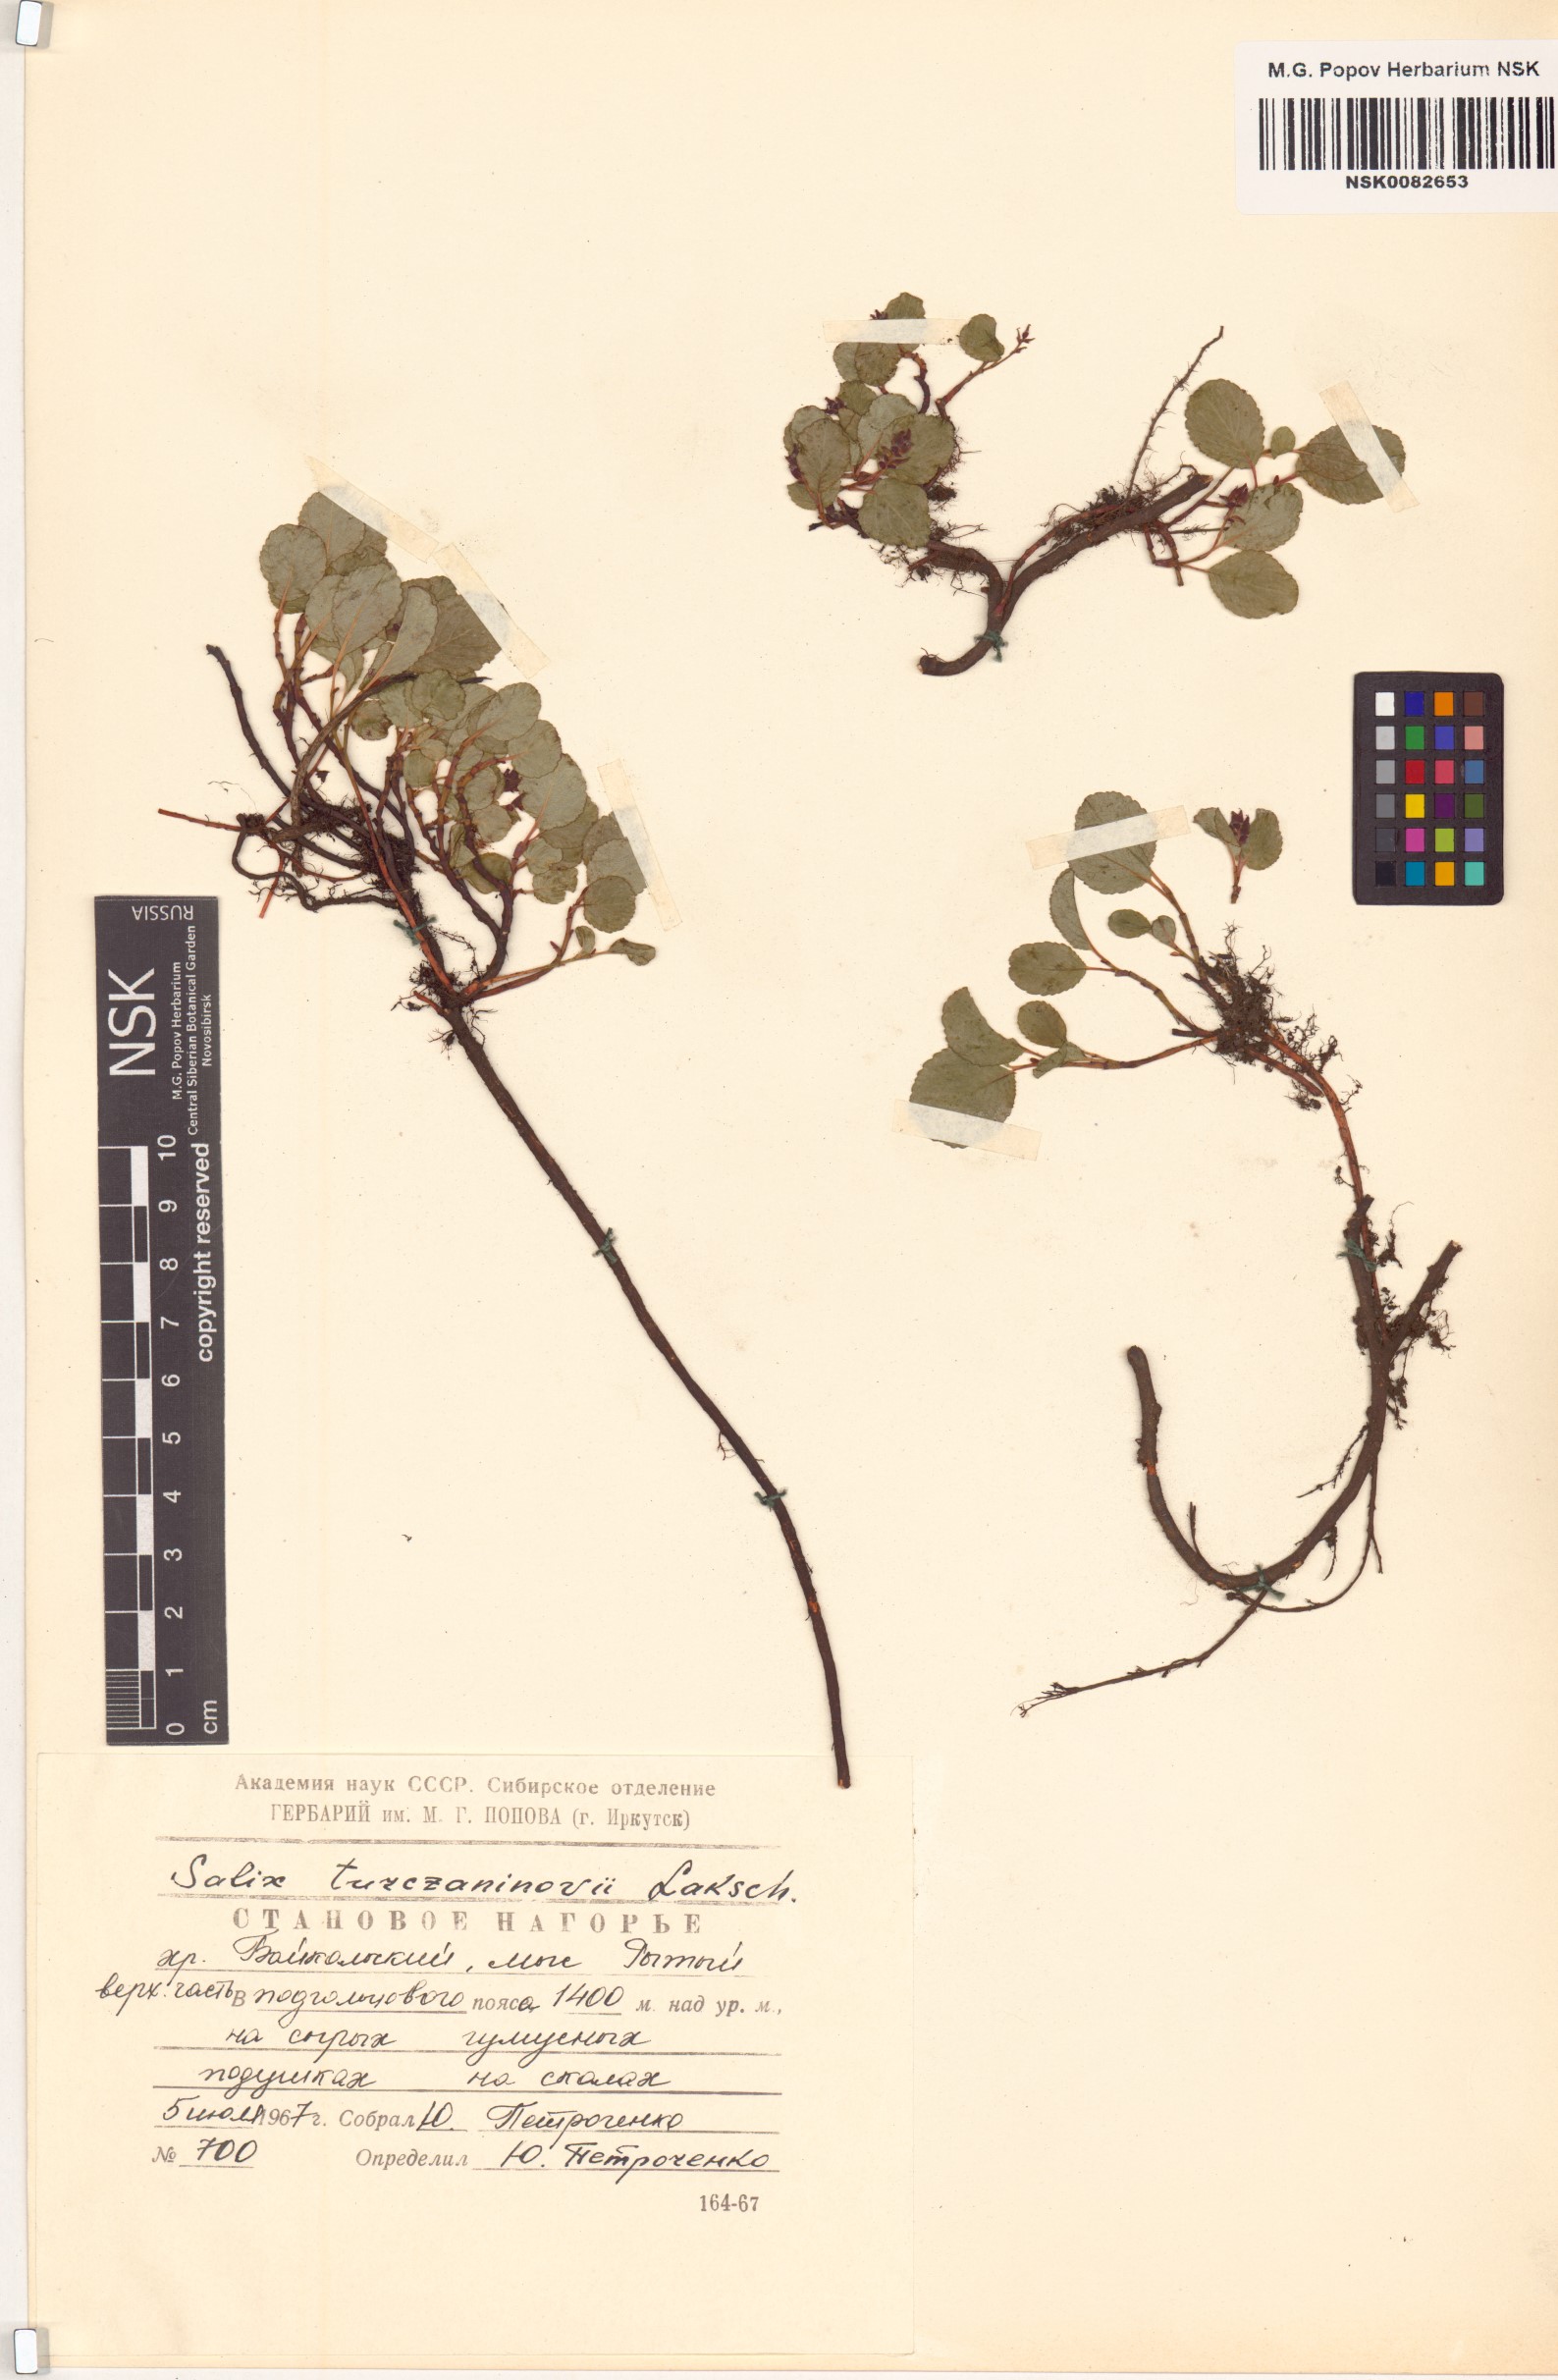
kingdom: Plantae
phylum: Tracheophyta
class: Magnoliopsida
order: Malpighiales
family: Salicaceae
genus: Salix
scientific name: Salix turczaninowii
